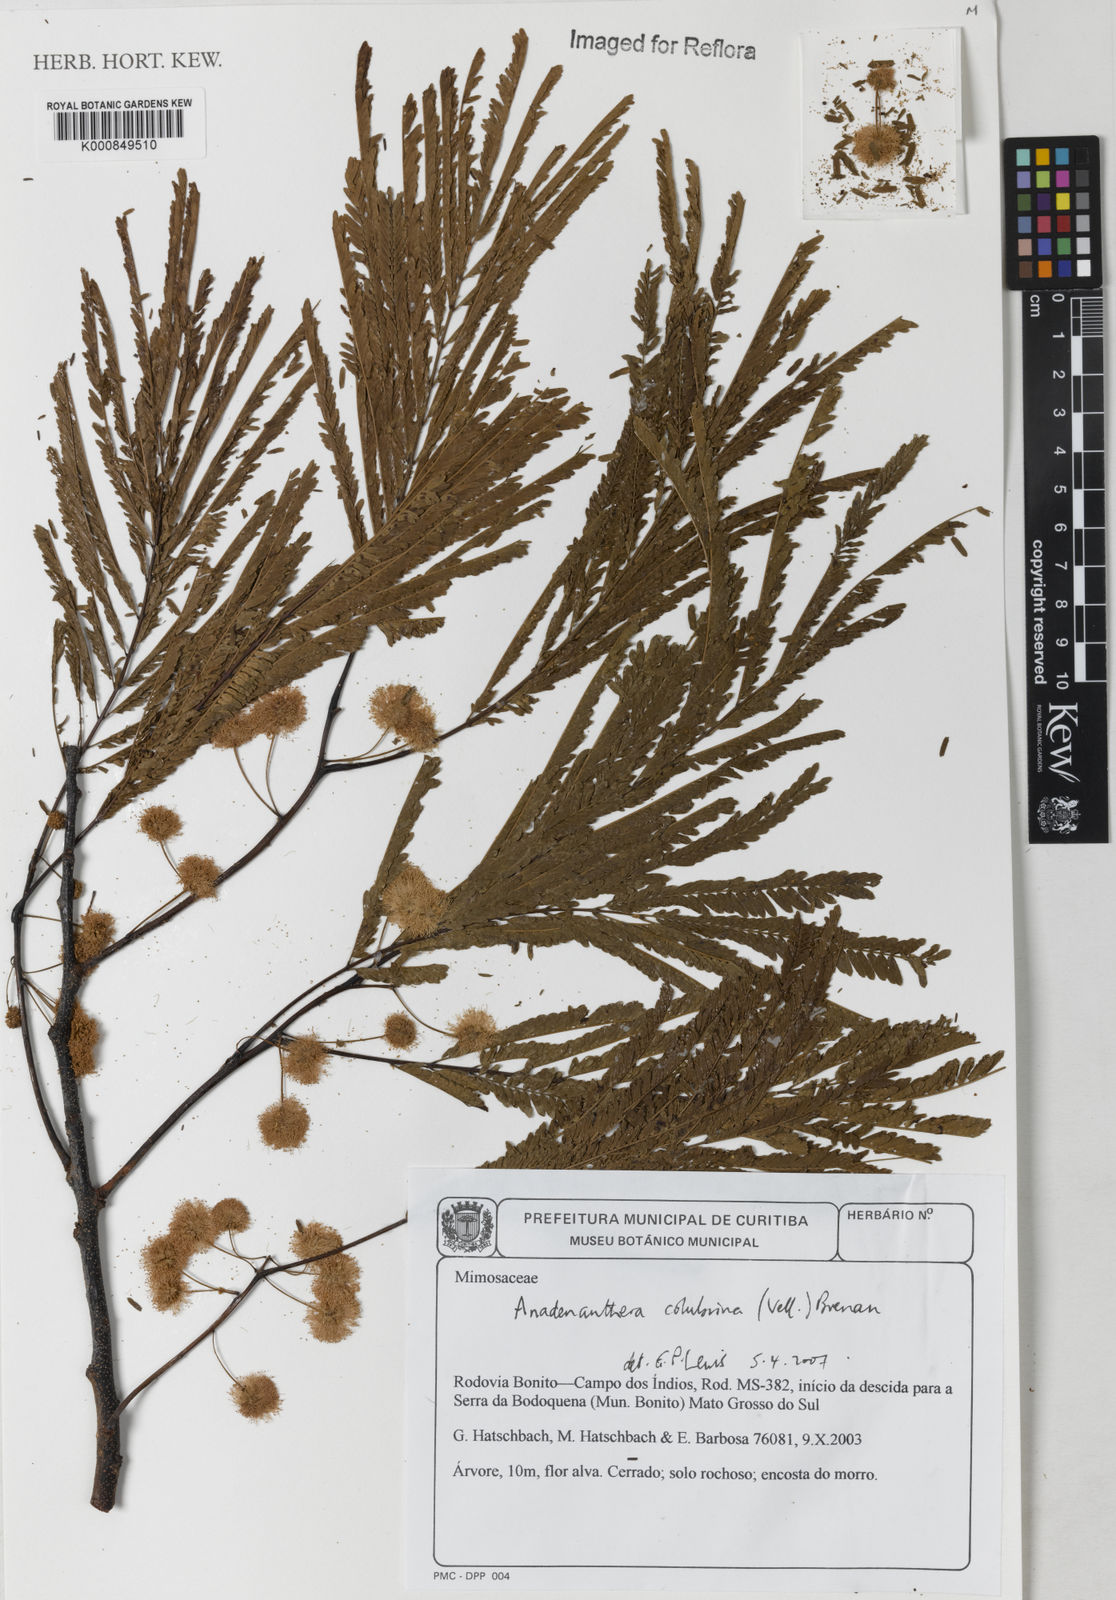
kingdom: Plantae
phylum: Tracheophyta
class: Magnoliopsida
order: Fabales
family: Fabaceae
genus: Anadenanthera
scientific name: Anadenanthera colubrina
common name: Curupay
